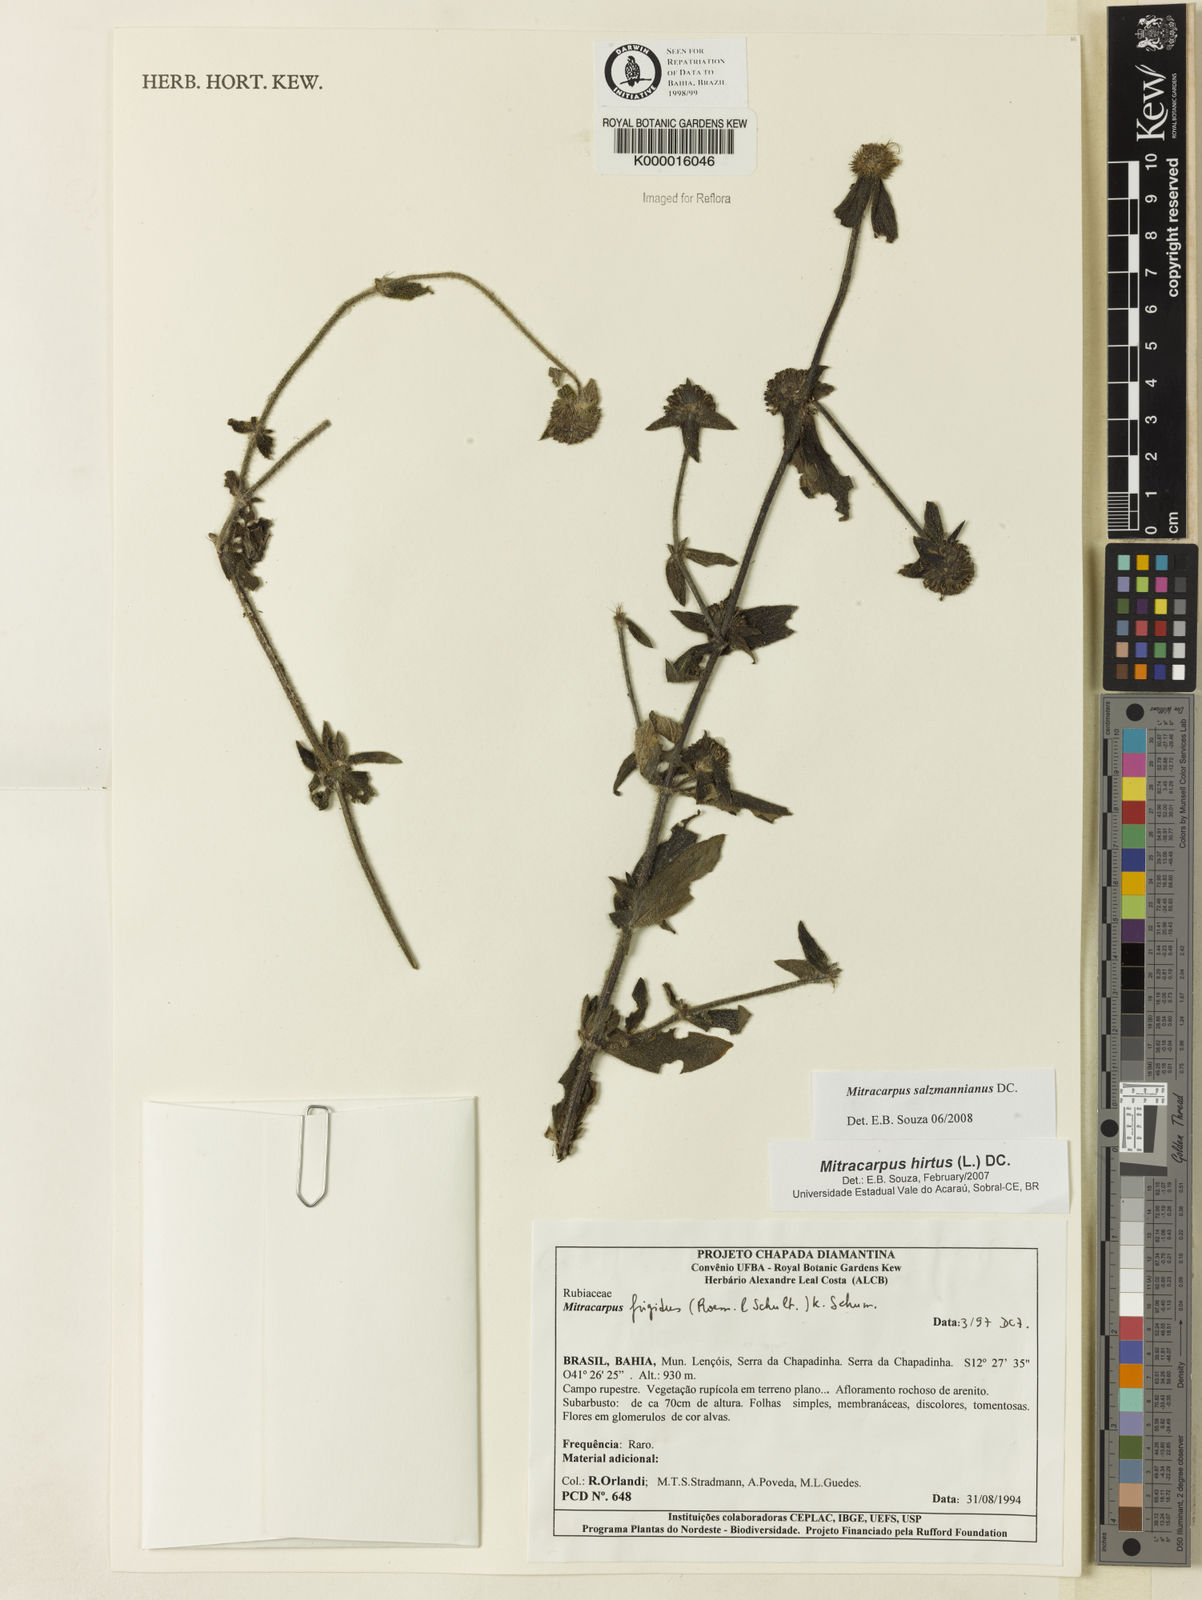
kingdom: Plantae
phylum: Tracheophyta
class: Magnoliopsida
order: Gentianales
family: Rubiaceae
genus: Mitracarpus
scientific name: Mitracarpus salzmannianus
